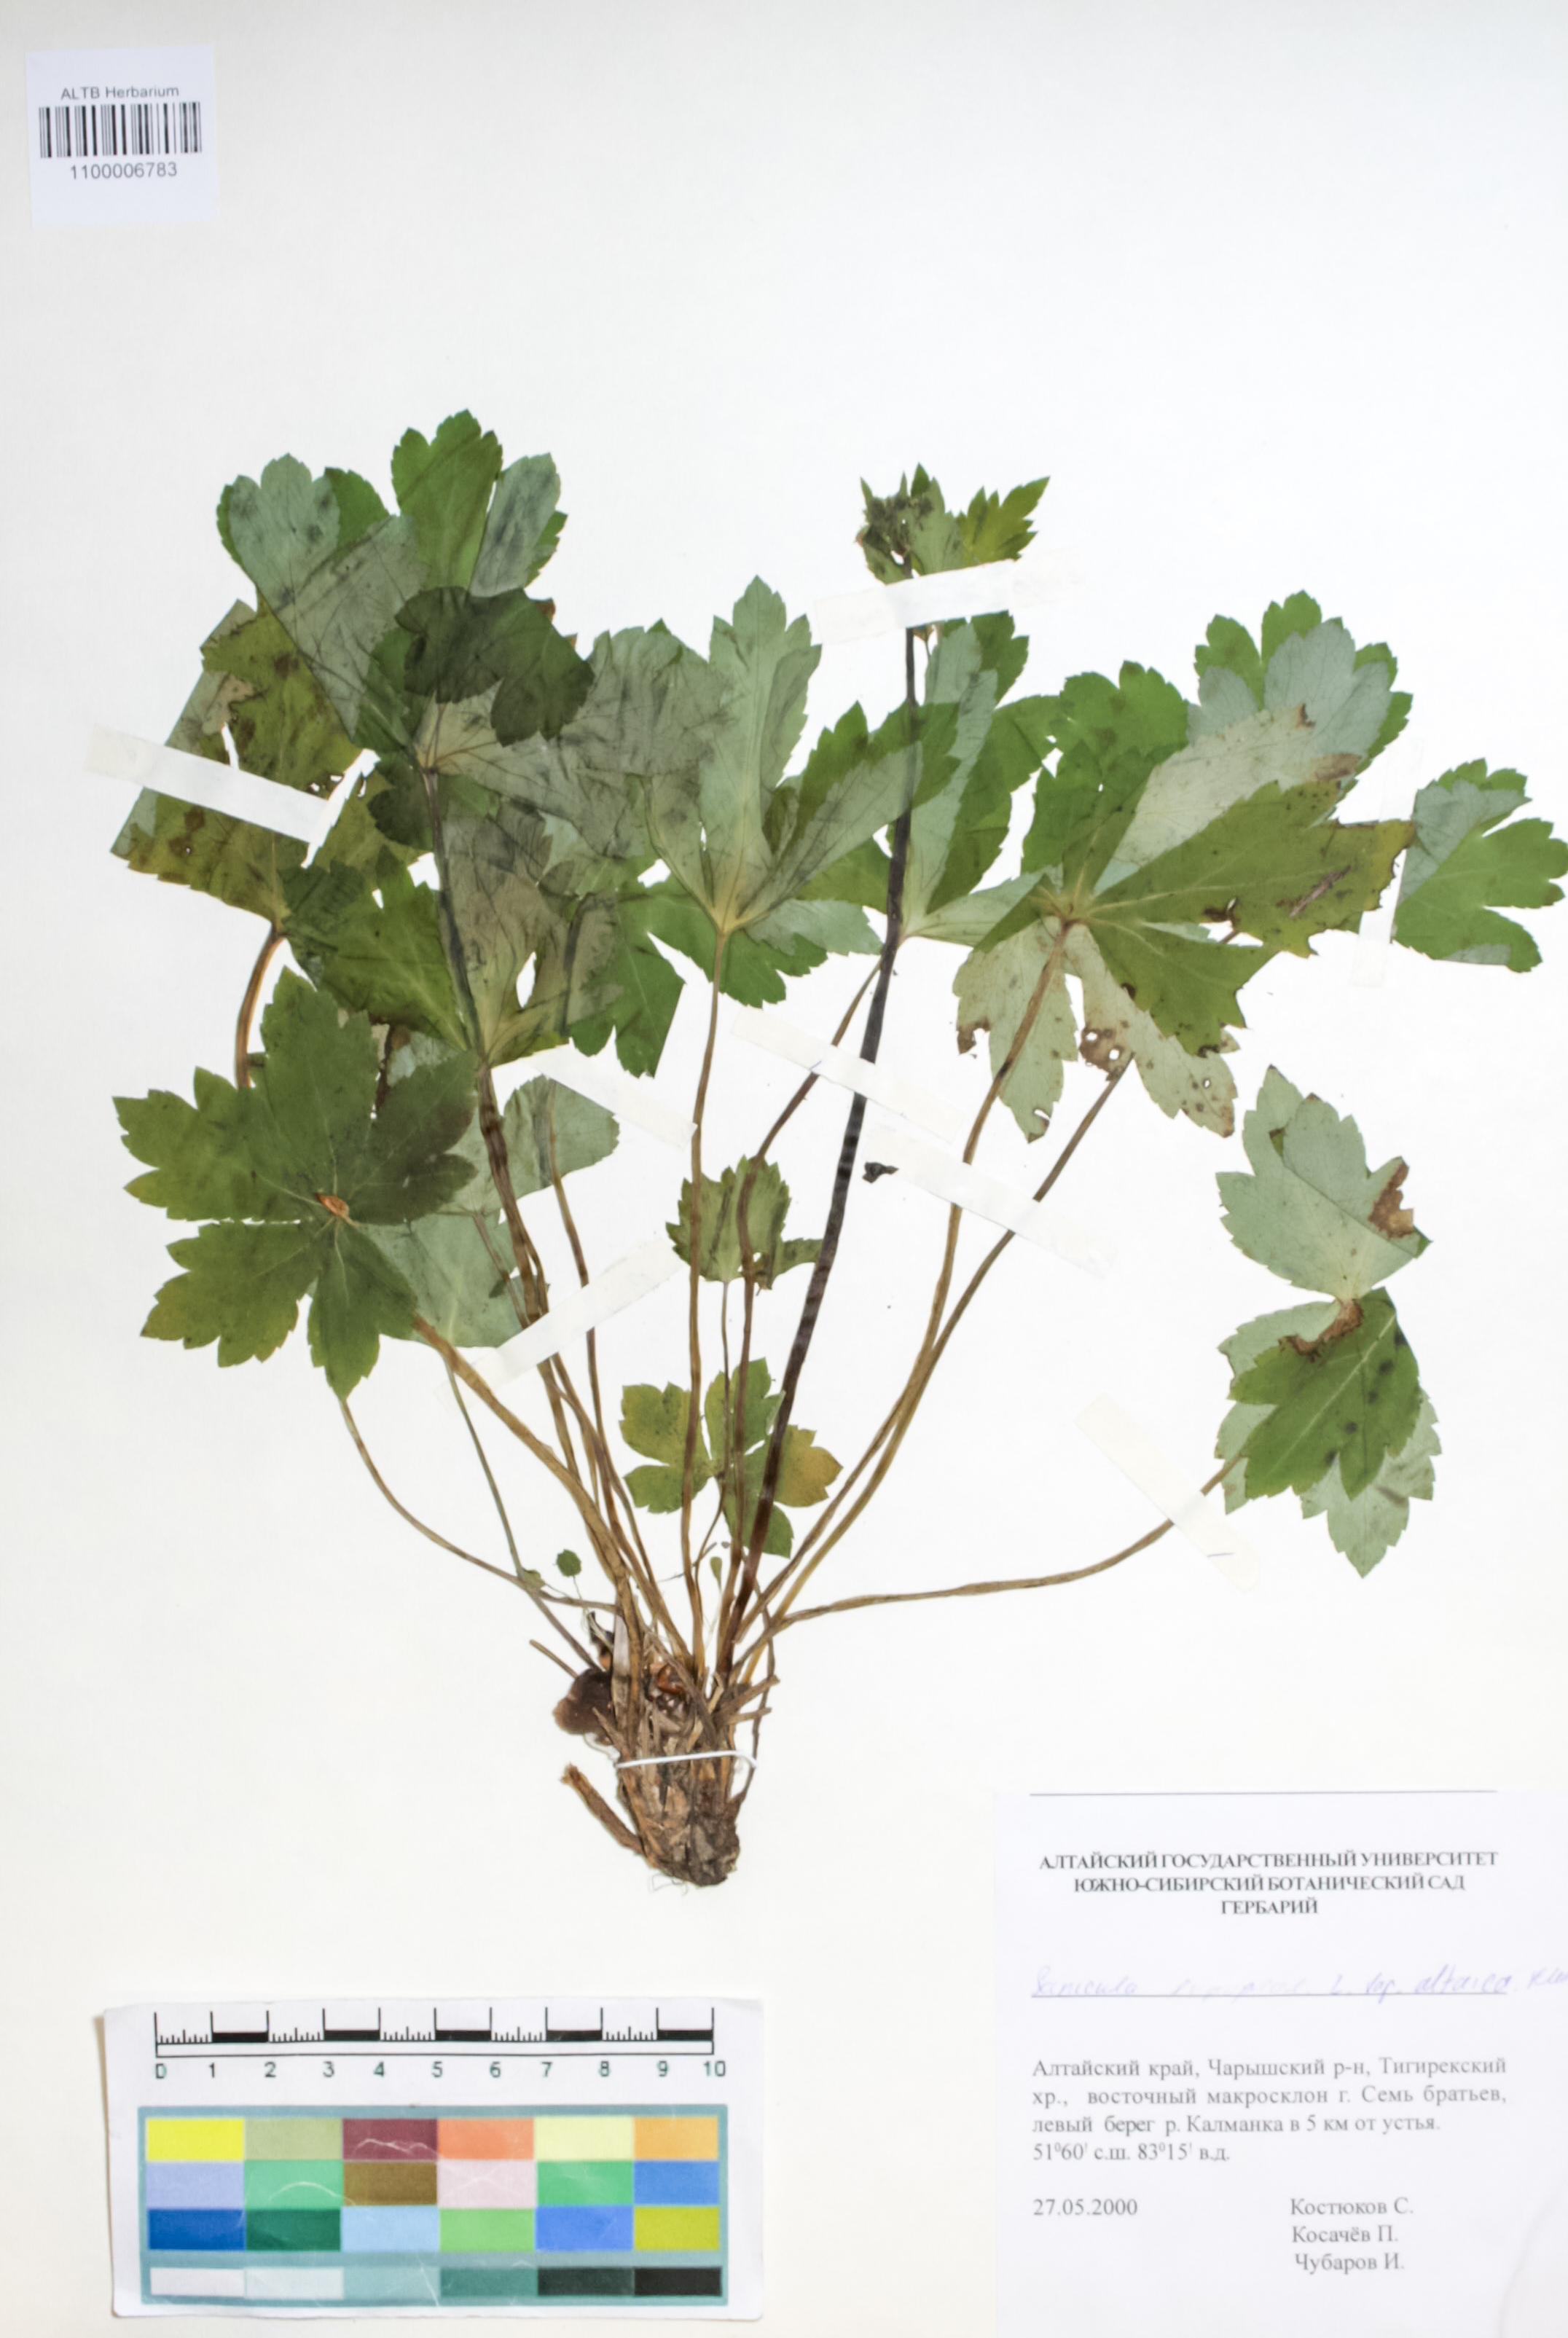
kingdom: Plantae
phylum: Tracheophyta
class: Magnoliopsida
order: Apiales
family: Apiaceae
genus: Sanicula
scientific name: Sanicula europaea
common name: Sanicle
